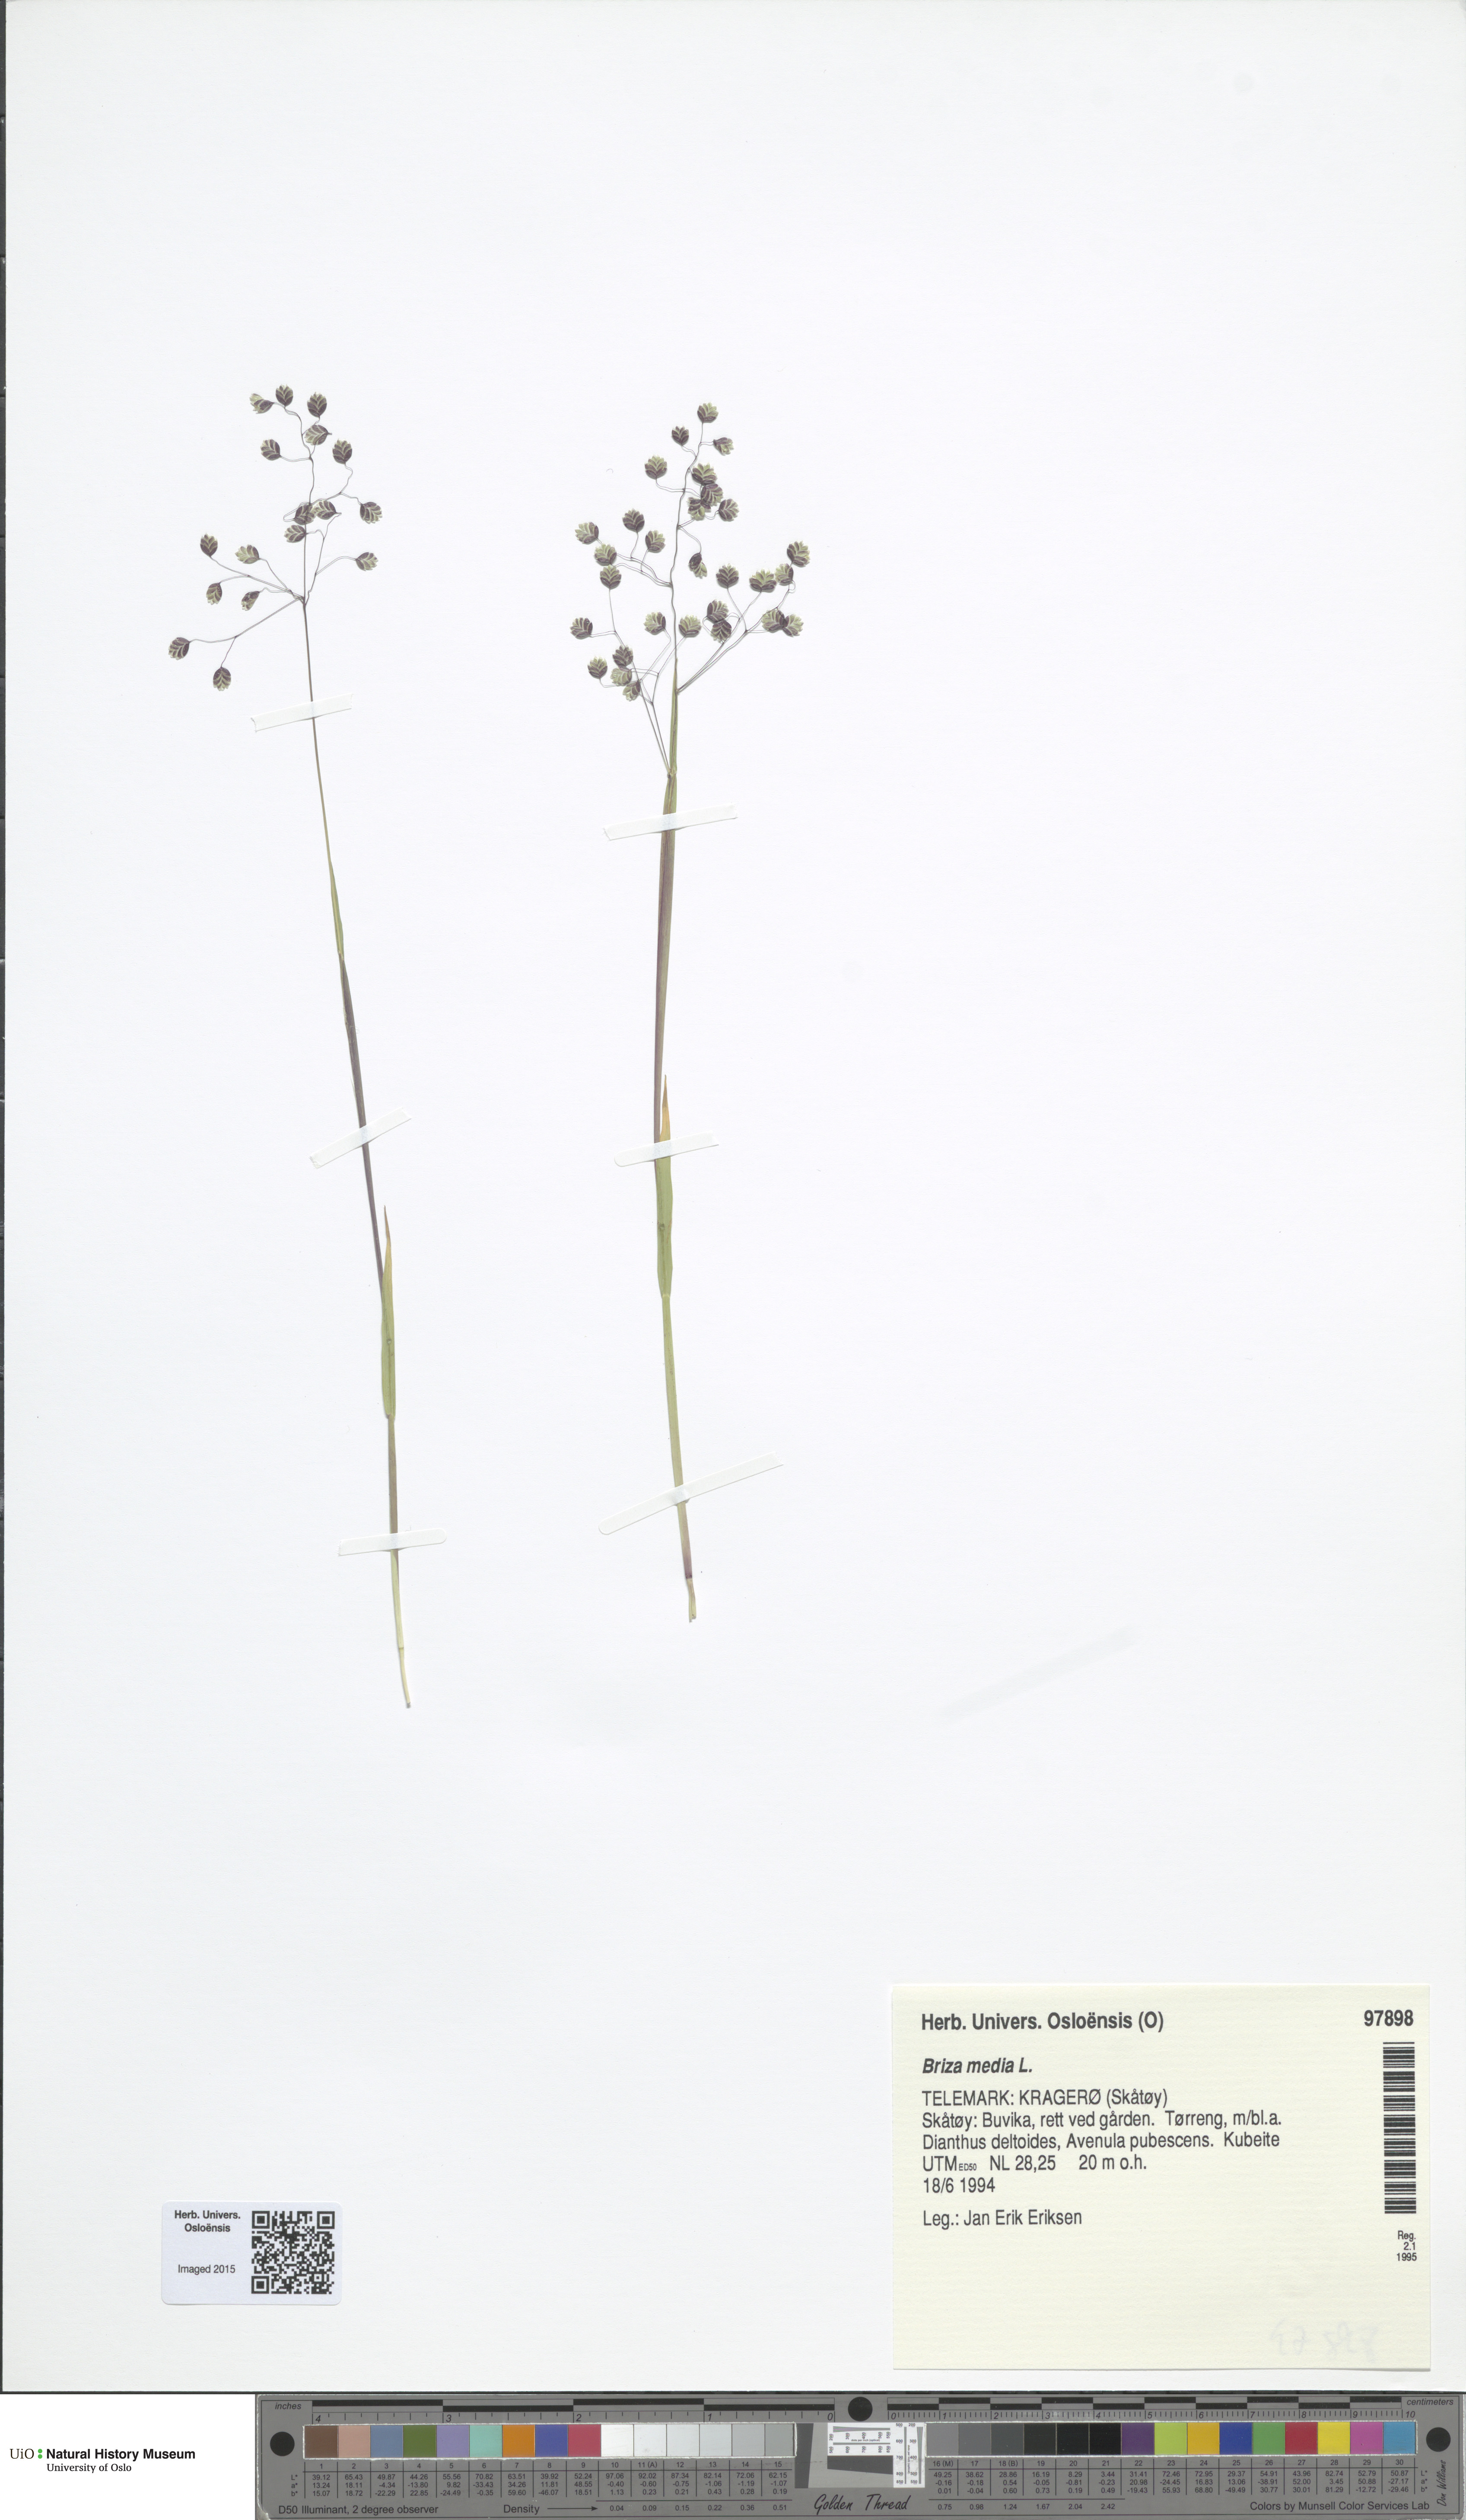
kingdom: Plantae
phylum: Tracheophyta
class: Liliopsida
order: Poales
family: Poaceae
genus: Briza
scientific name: Briza media
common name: Quaking grass
